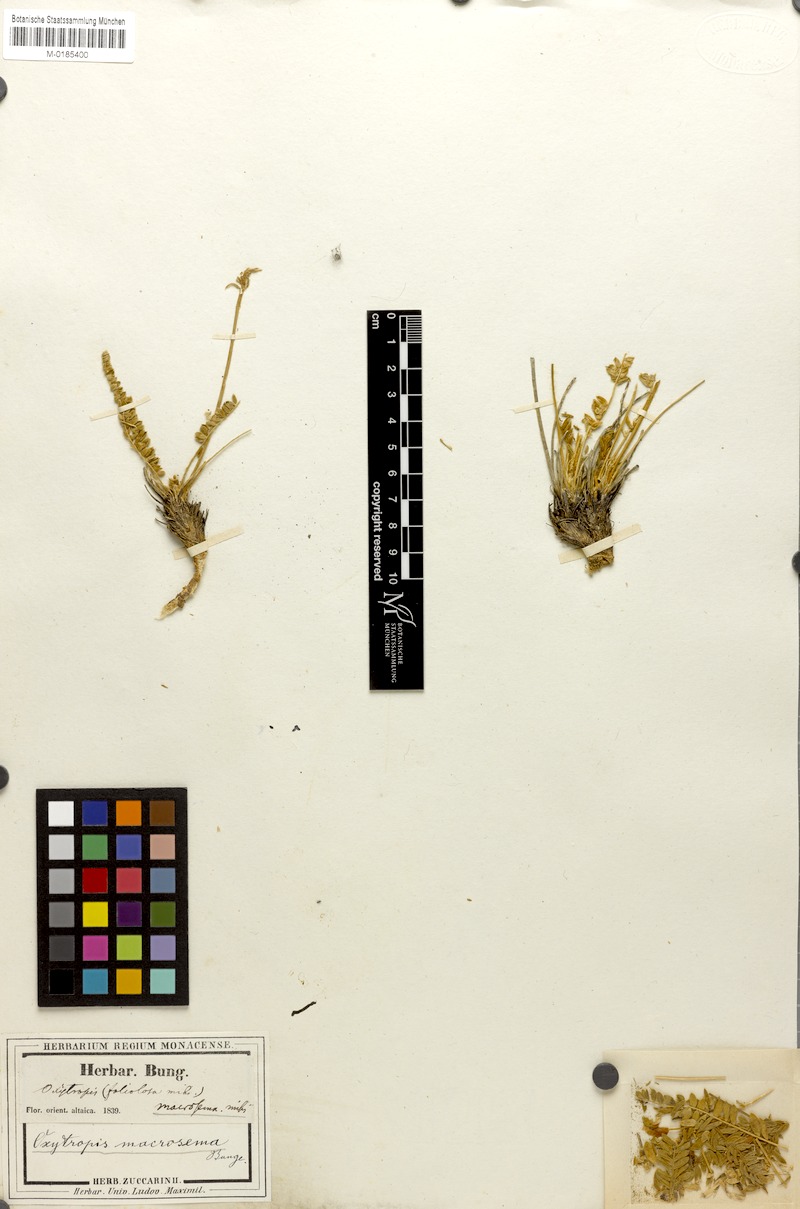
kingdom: Plantae
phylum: Tracheophyta
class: Magnoliopsida
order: Fabales
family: Fabaceae
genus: Oxytropis
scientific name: Oxytropis macrosema
